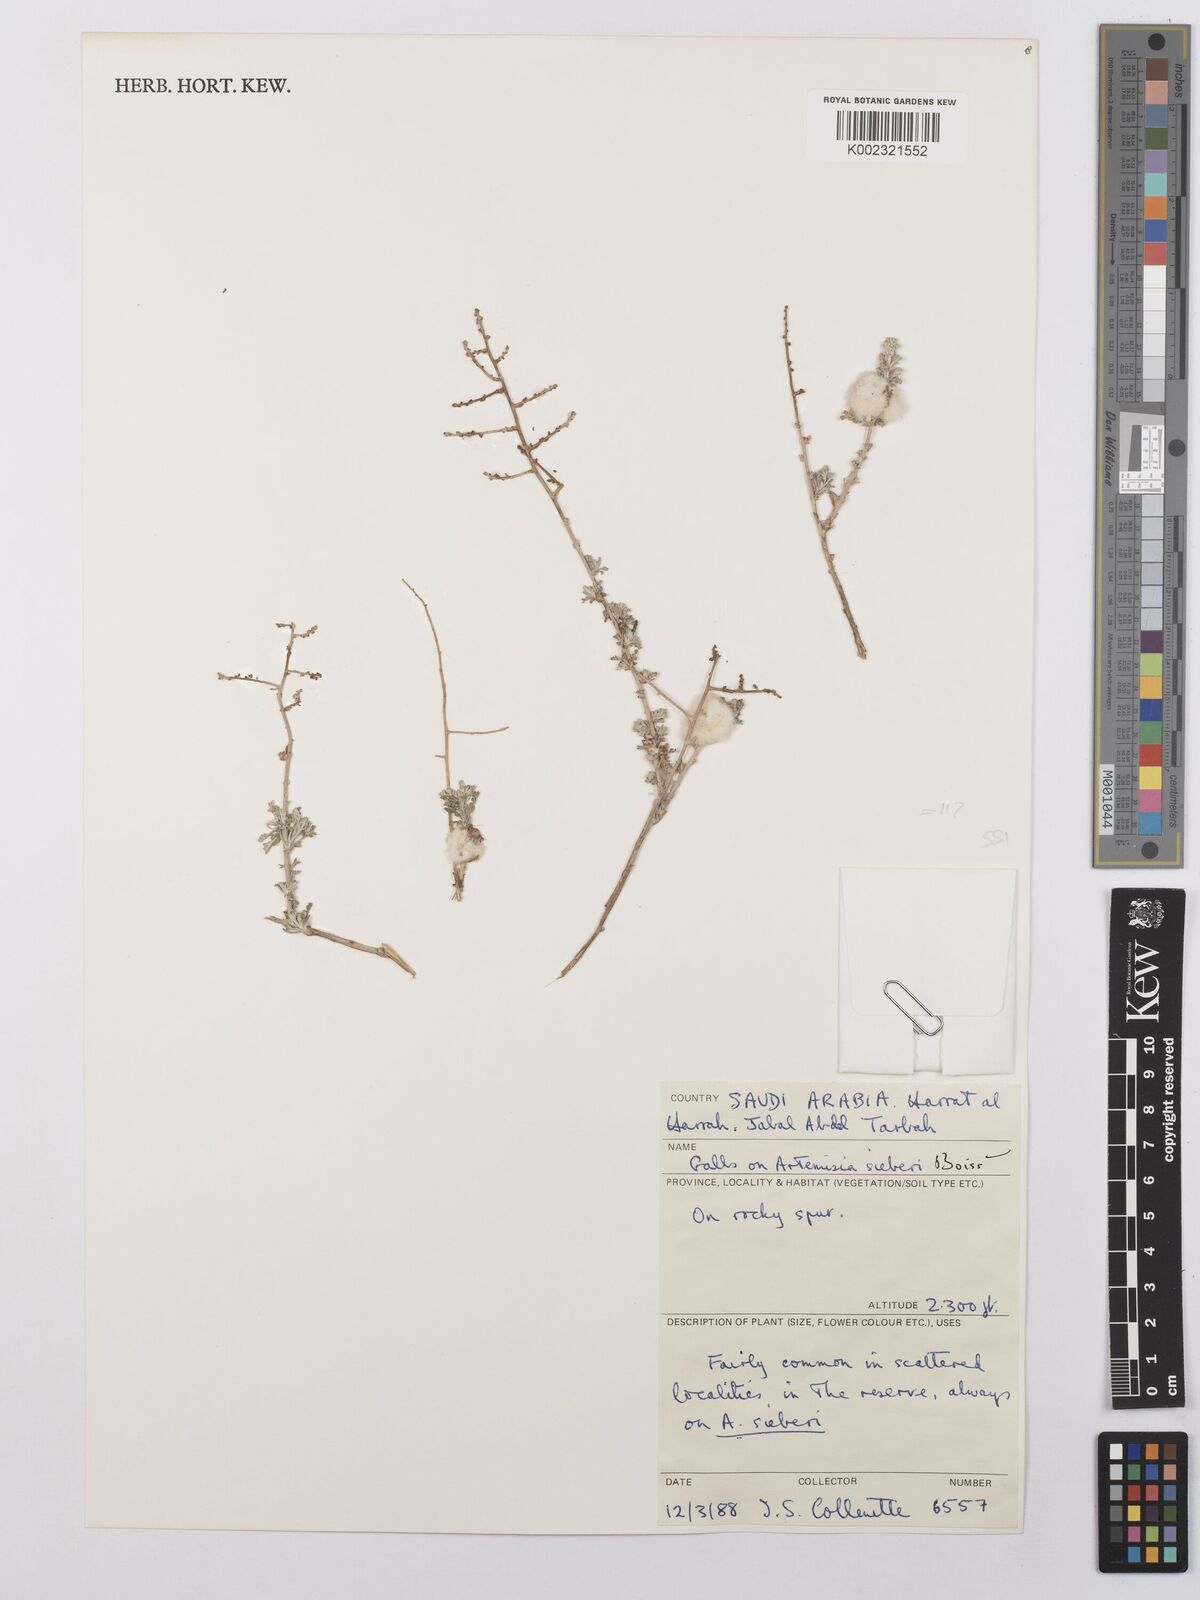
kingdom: Plantae
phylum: Tracheophyta
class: Magnoliopsida
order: Asterales
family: Asteraceae
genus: Artemisia
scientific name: Artemisia sieberi
